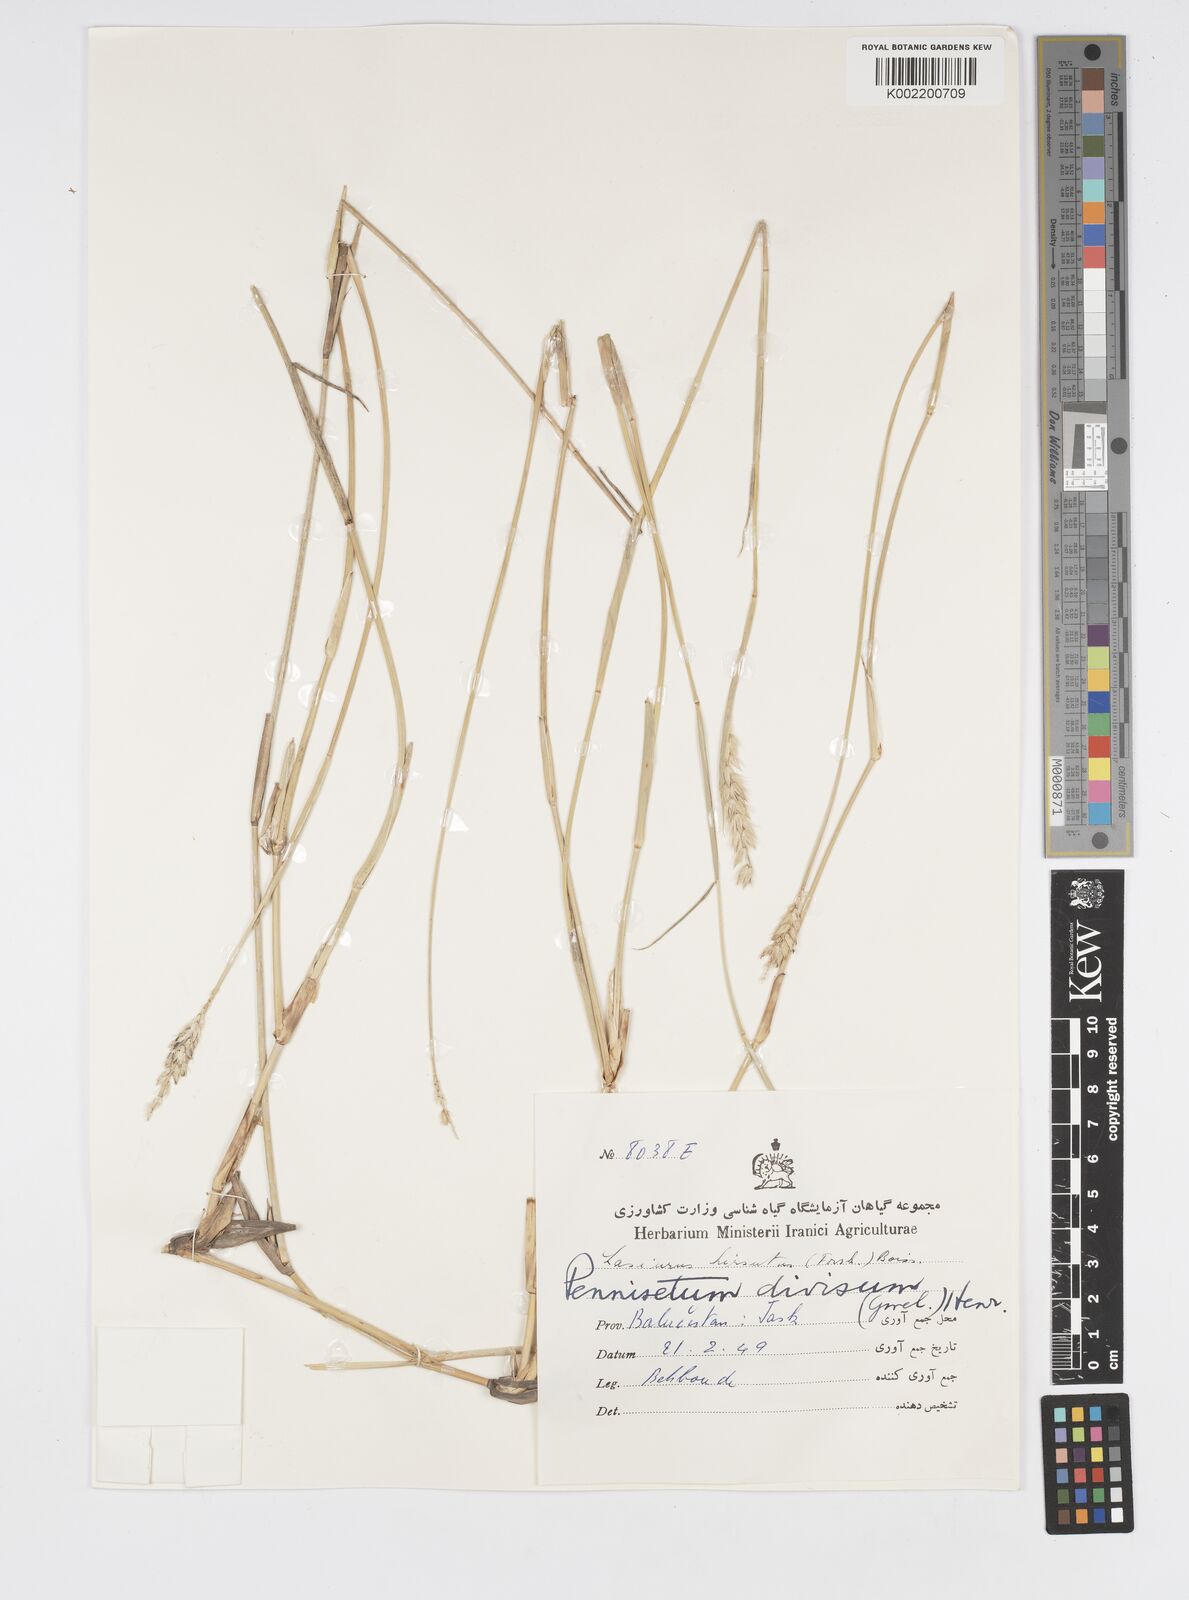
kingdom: Plantae
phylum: Tracheophyta
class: Liliopsida
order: Poales
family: Poaceae
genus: Cenchrus
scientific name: Cenchrus divisus
